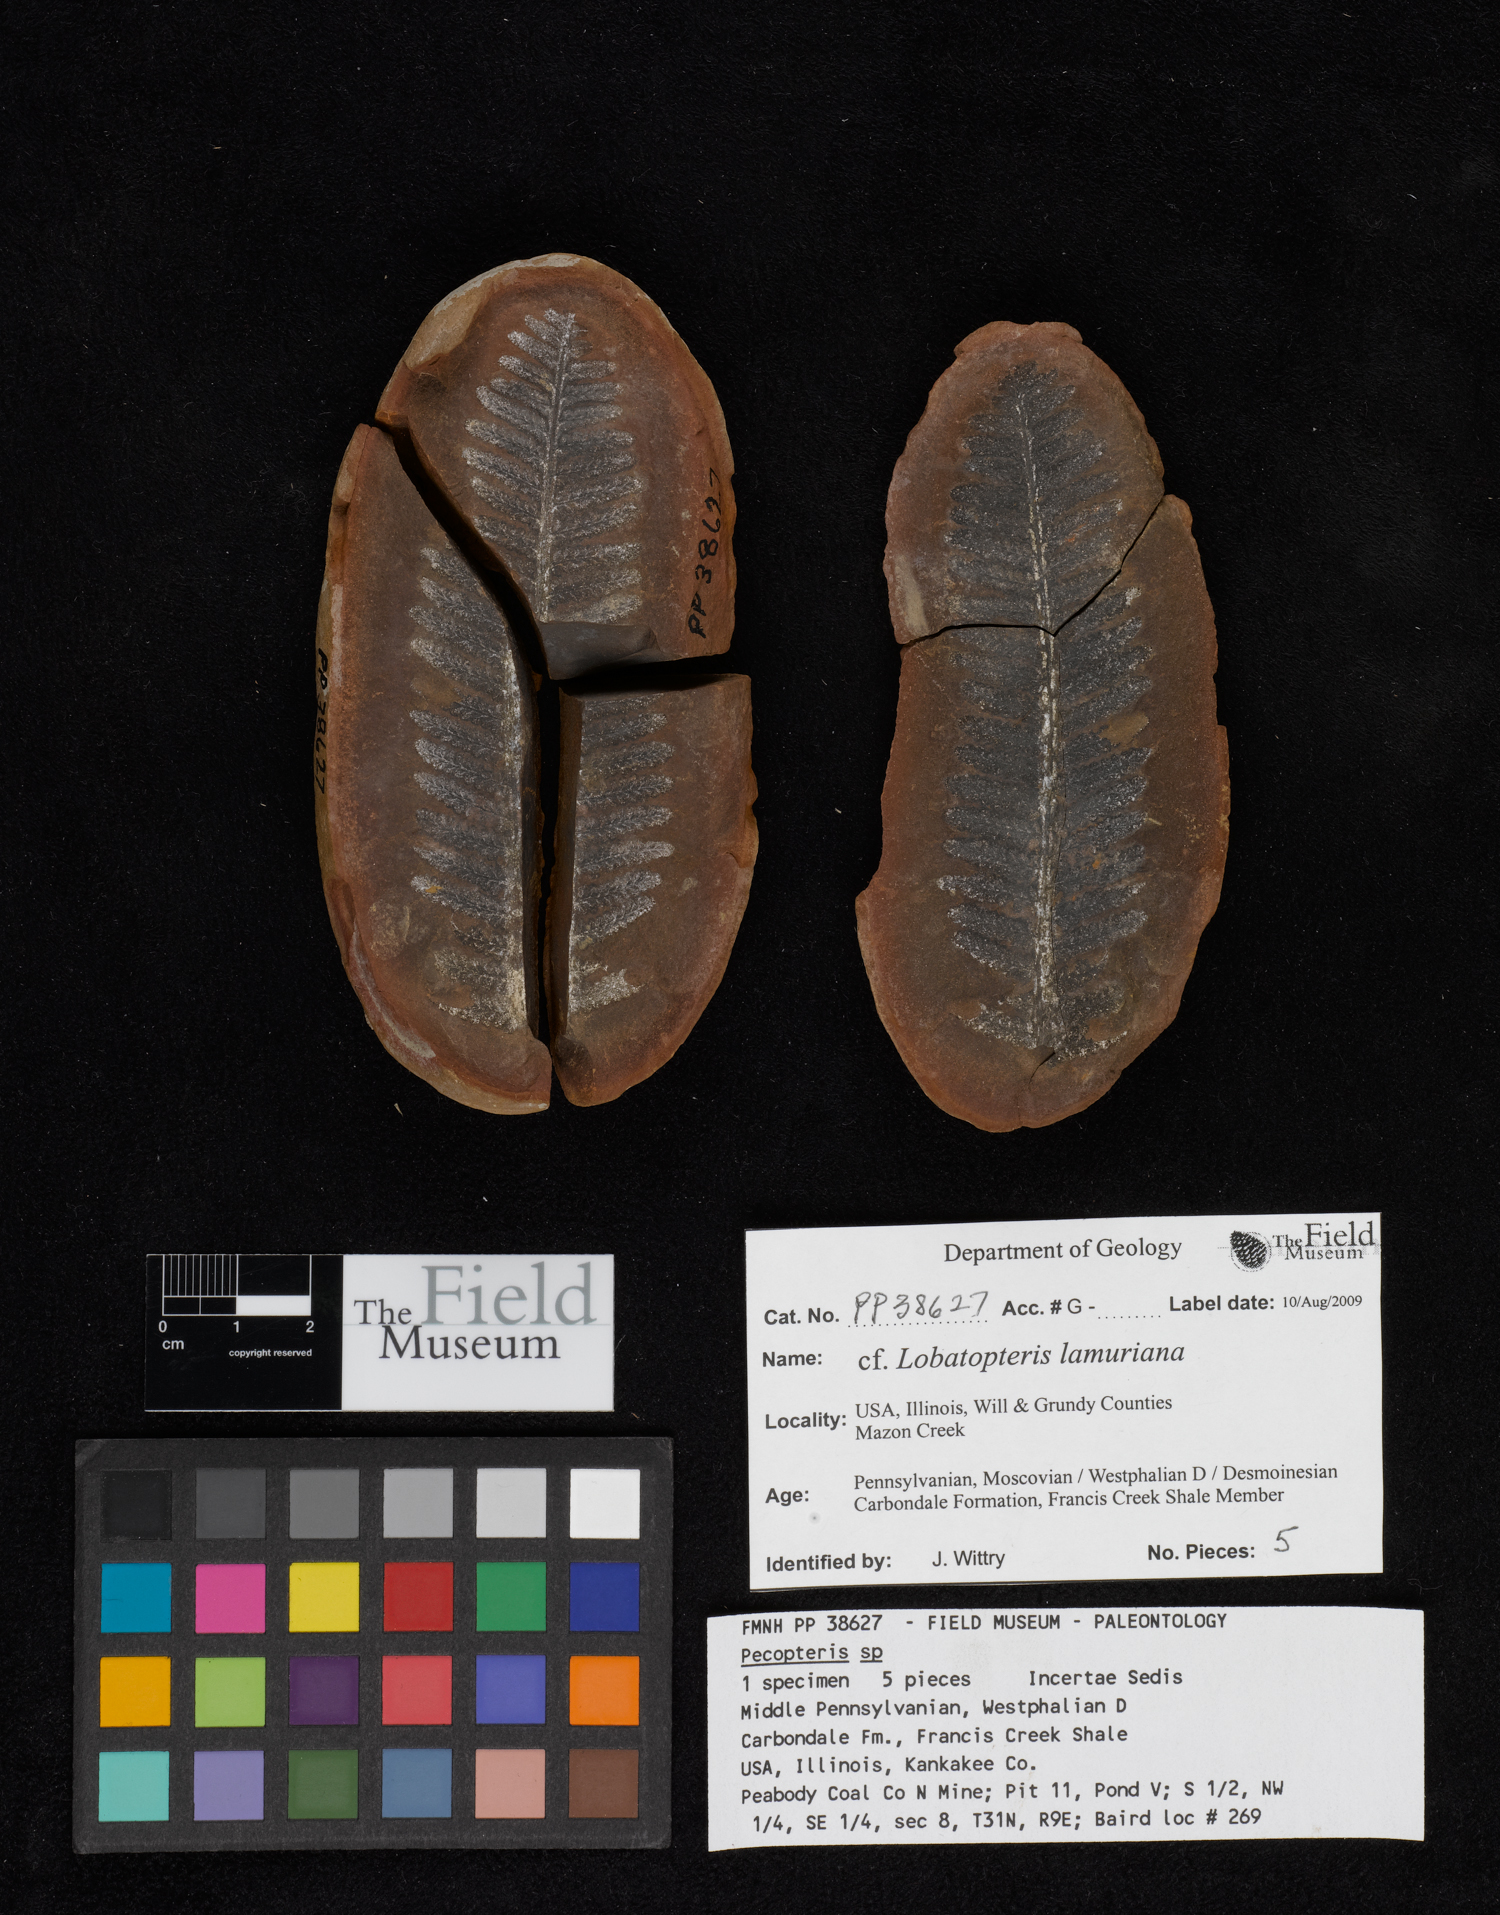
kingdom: Plantae
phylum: Tracheophyta
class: Polypodiopsida
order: Marattiales
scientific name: Marattiales
